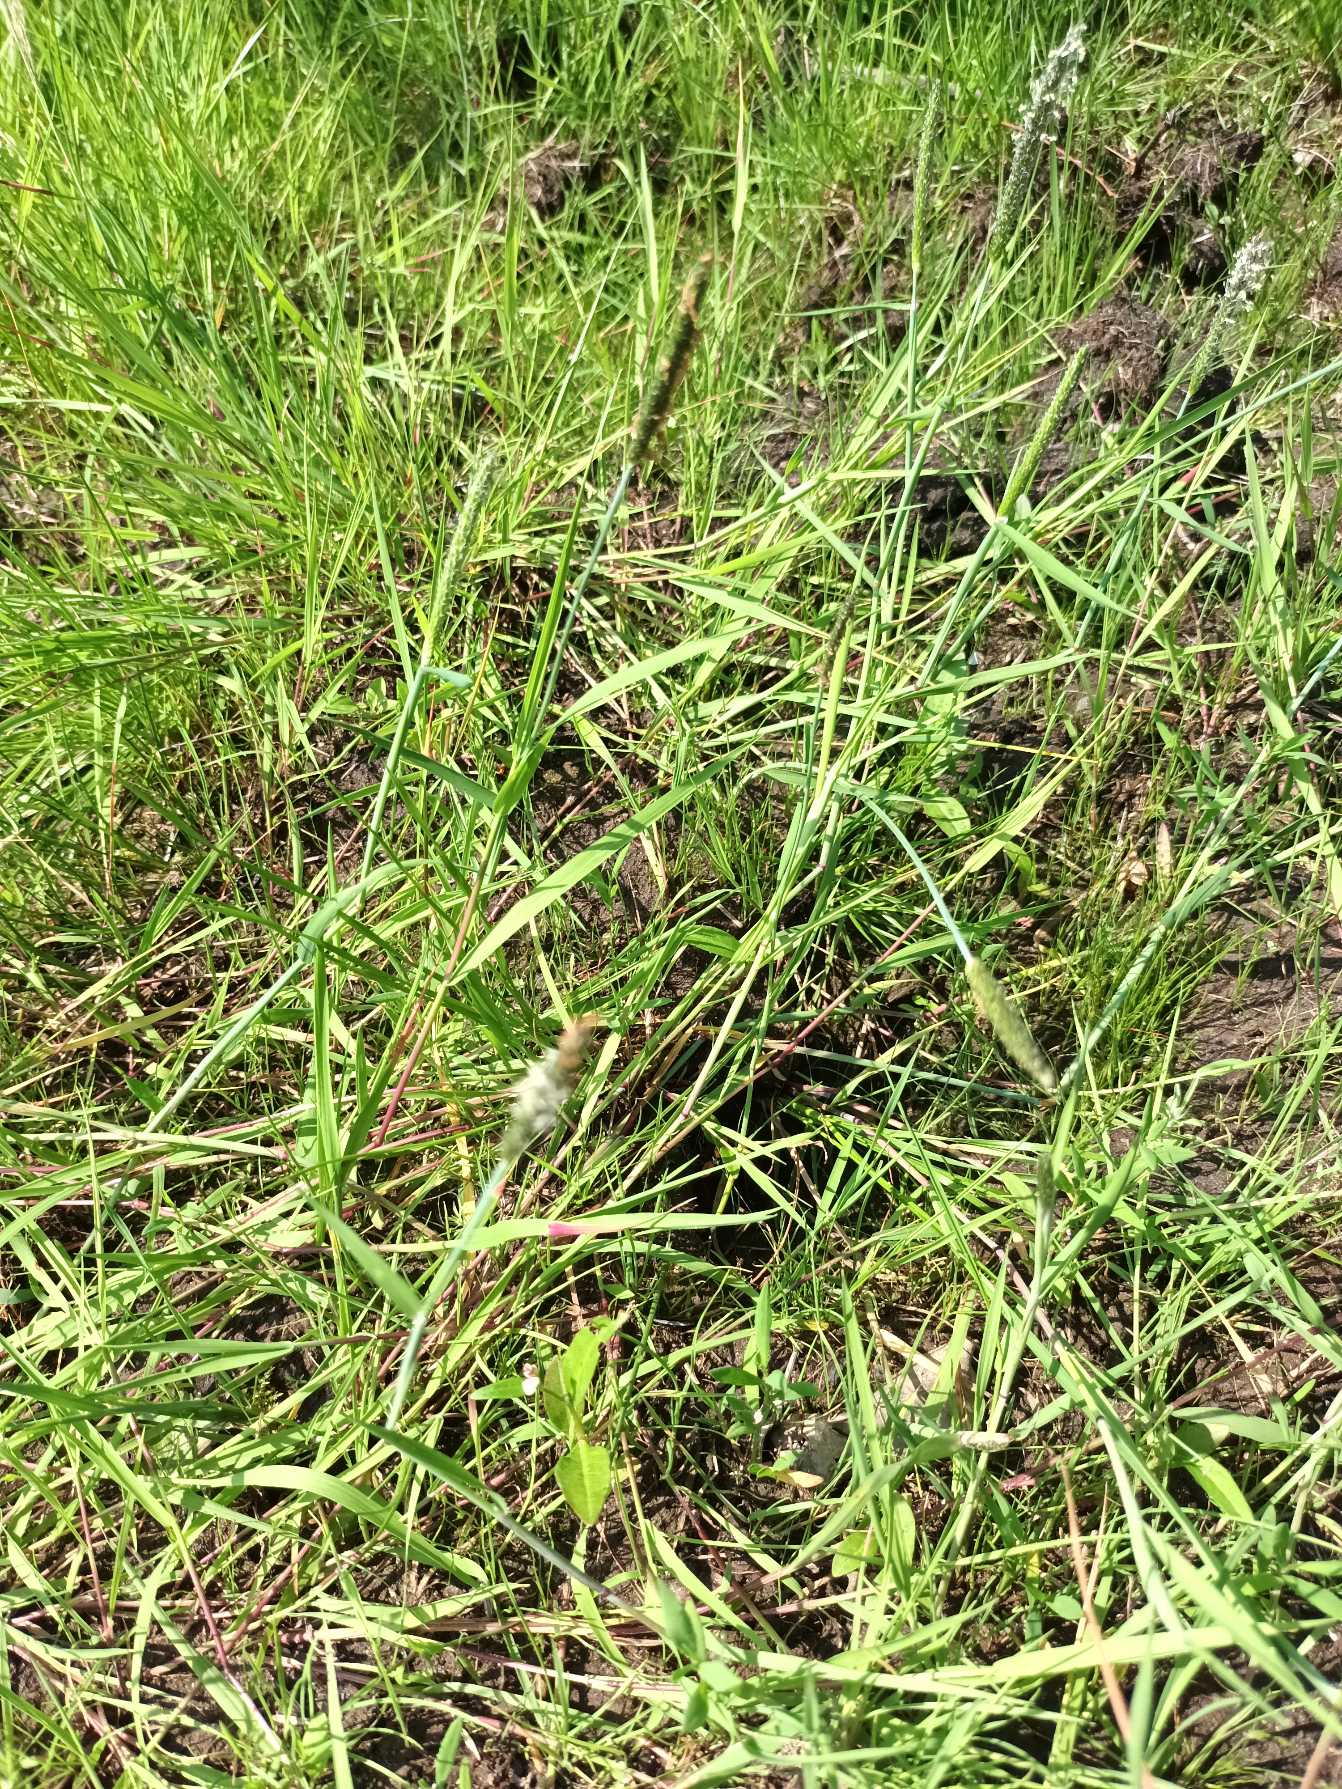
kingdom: Plantae
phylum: Tracheophyta
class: Liliopsida
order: Poales
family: Poaceae
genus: Alopecurus
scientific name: Alopecurus geniculatus
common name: Knæbøjet rævehale
